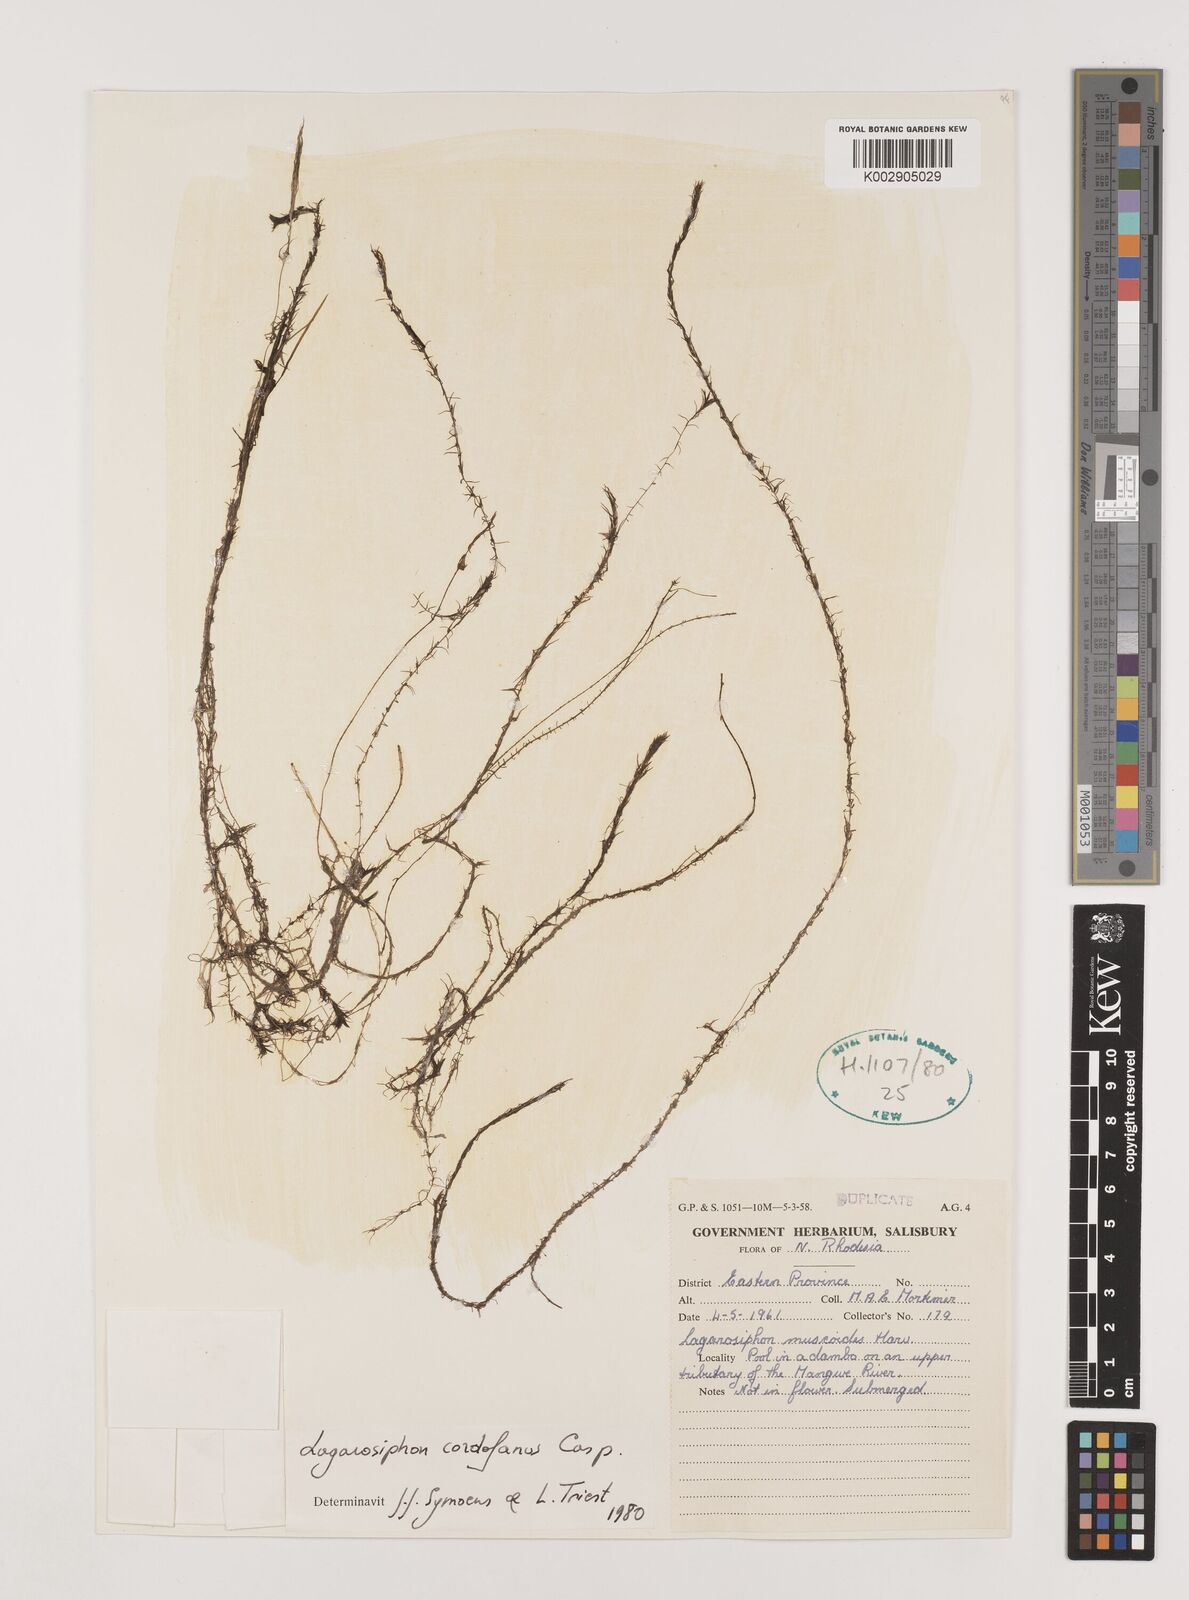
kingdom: Plantae
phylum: Tracheophyta
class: Liliopsida
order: Alismatales
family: Hydrocharitaceae
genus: Lagarosiphon
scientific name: Lagarosiphon cordofanus
